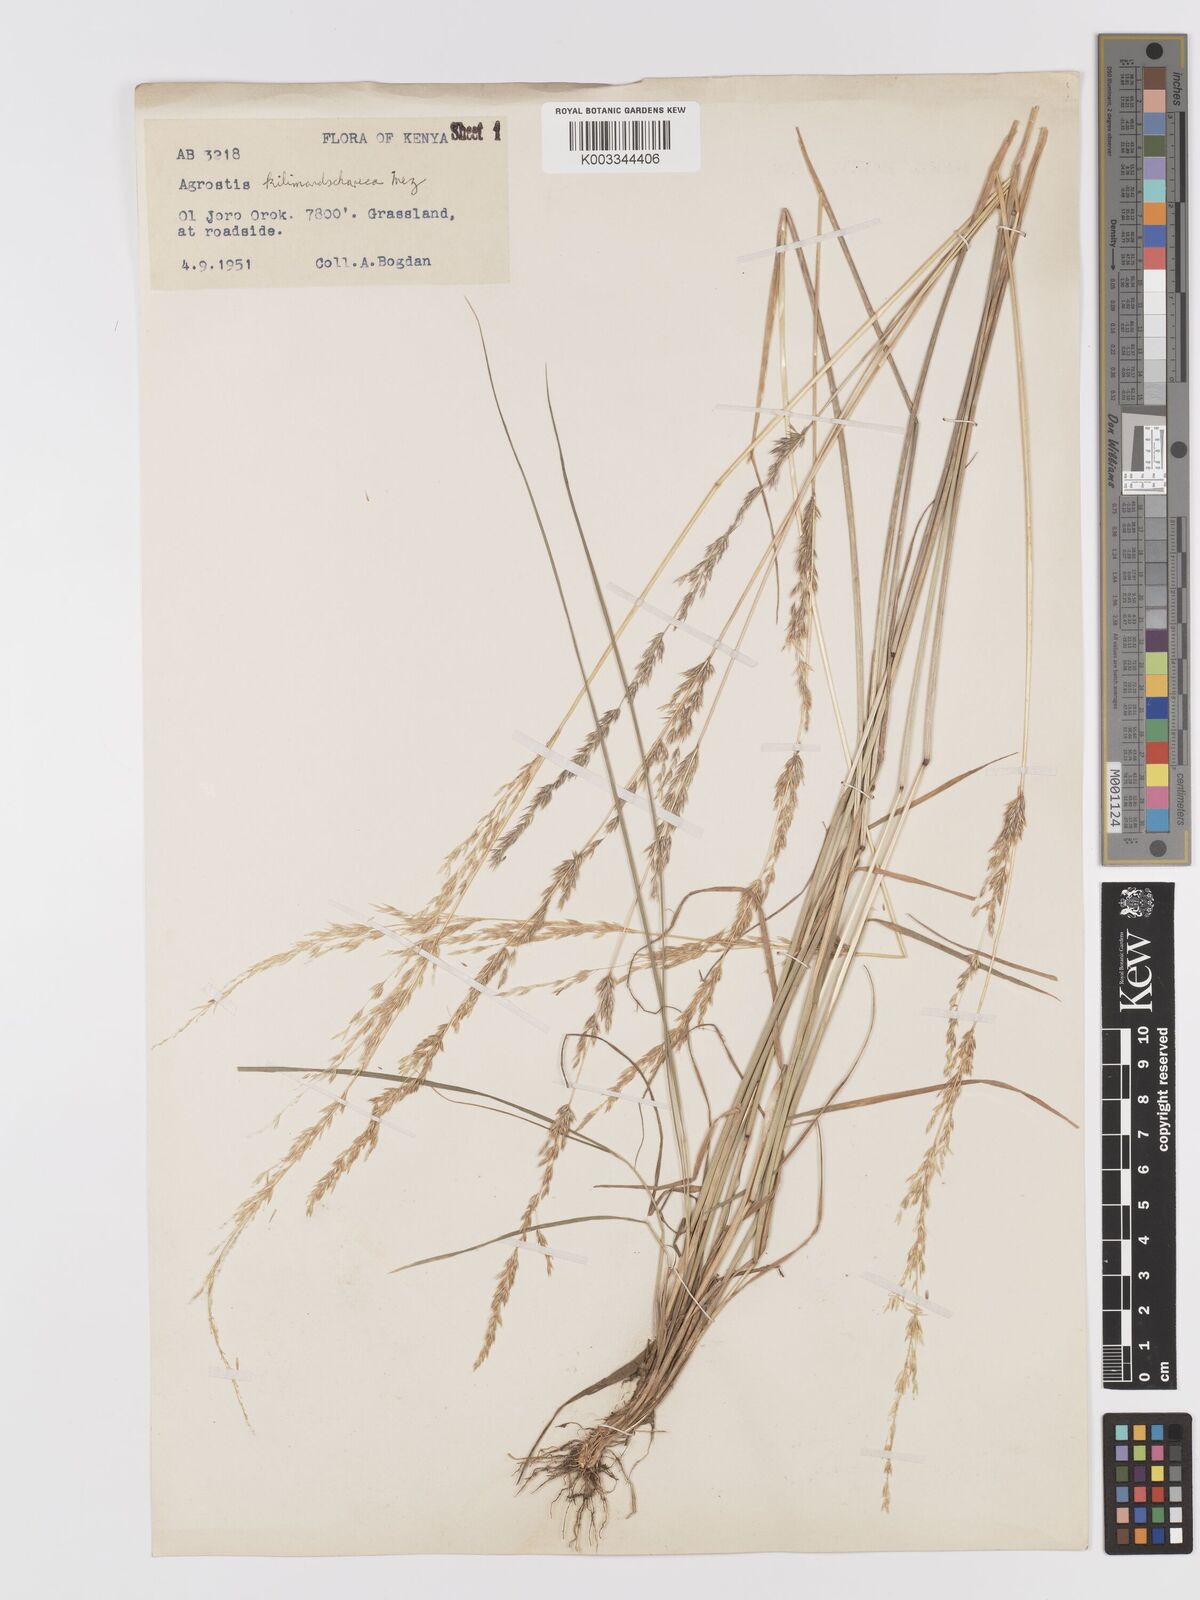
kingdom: Plantae
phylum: Tracheophyta
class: Liliopsida
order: Poales
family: Poaceae
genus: Agrostis
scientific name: Agrostis kilimandscharica
